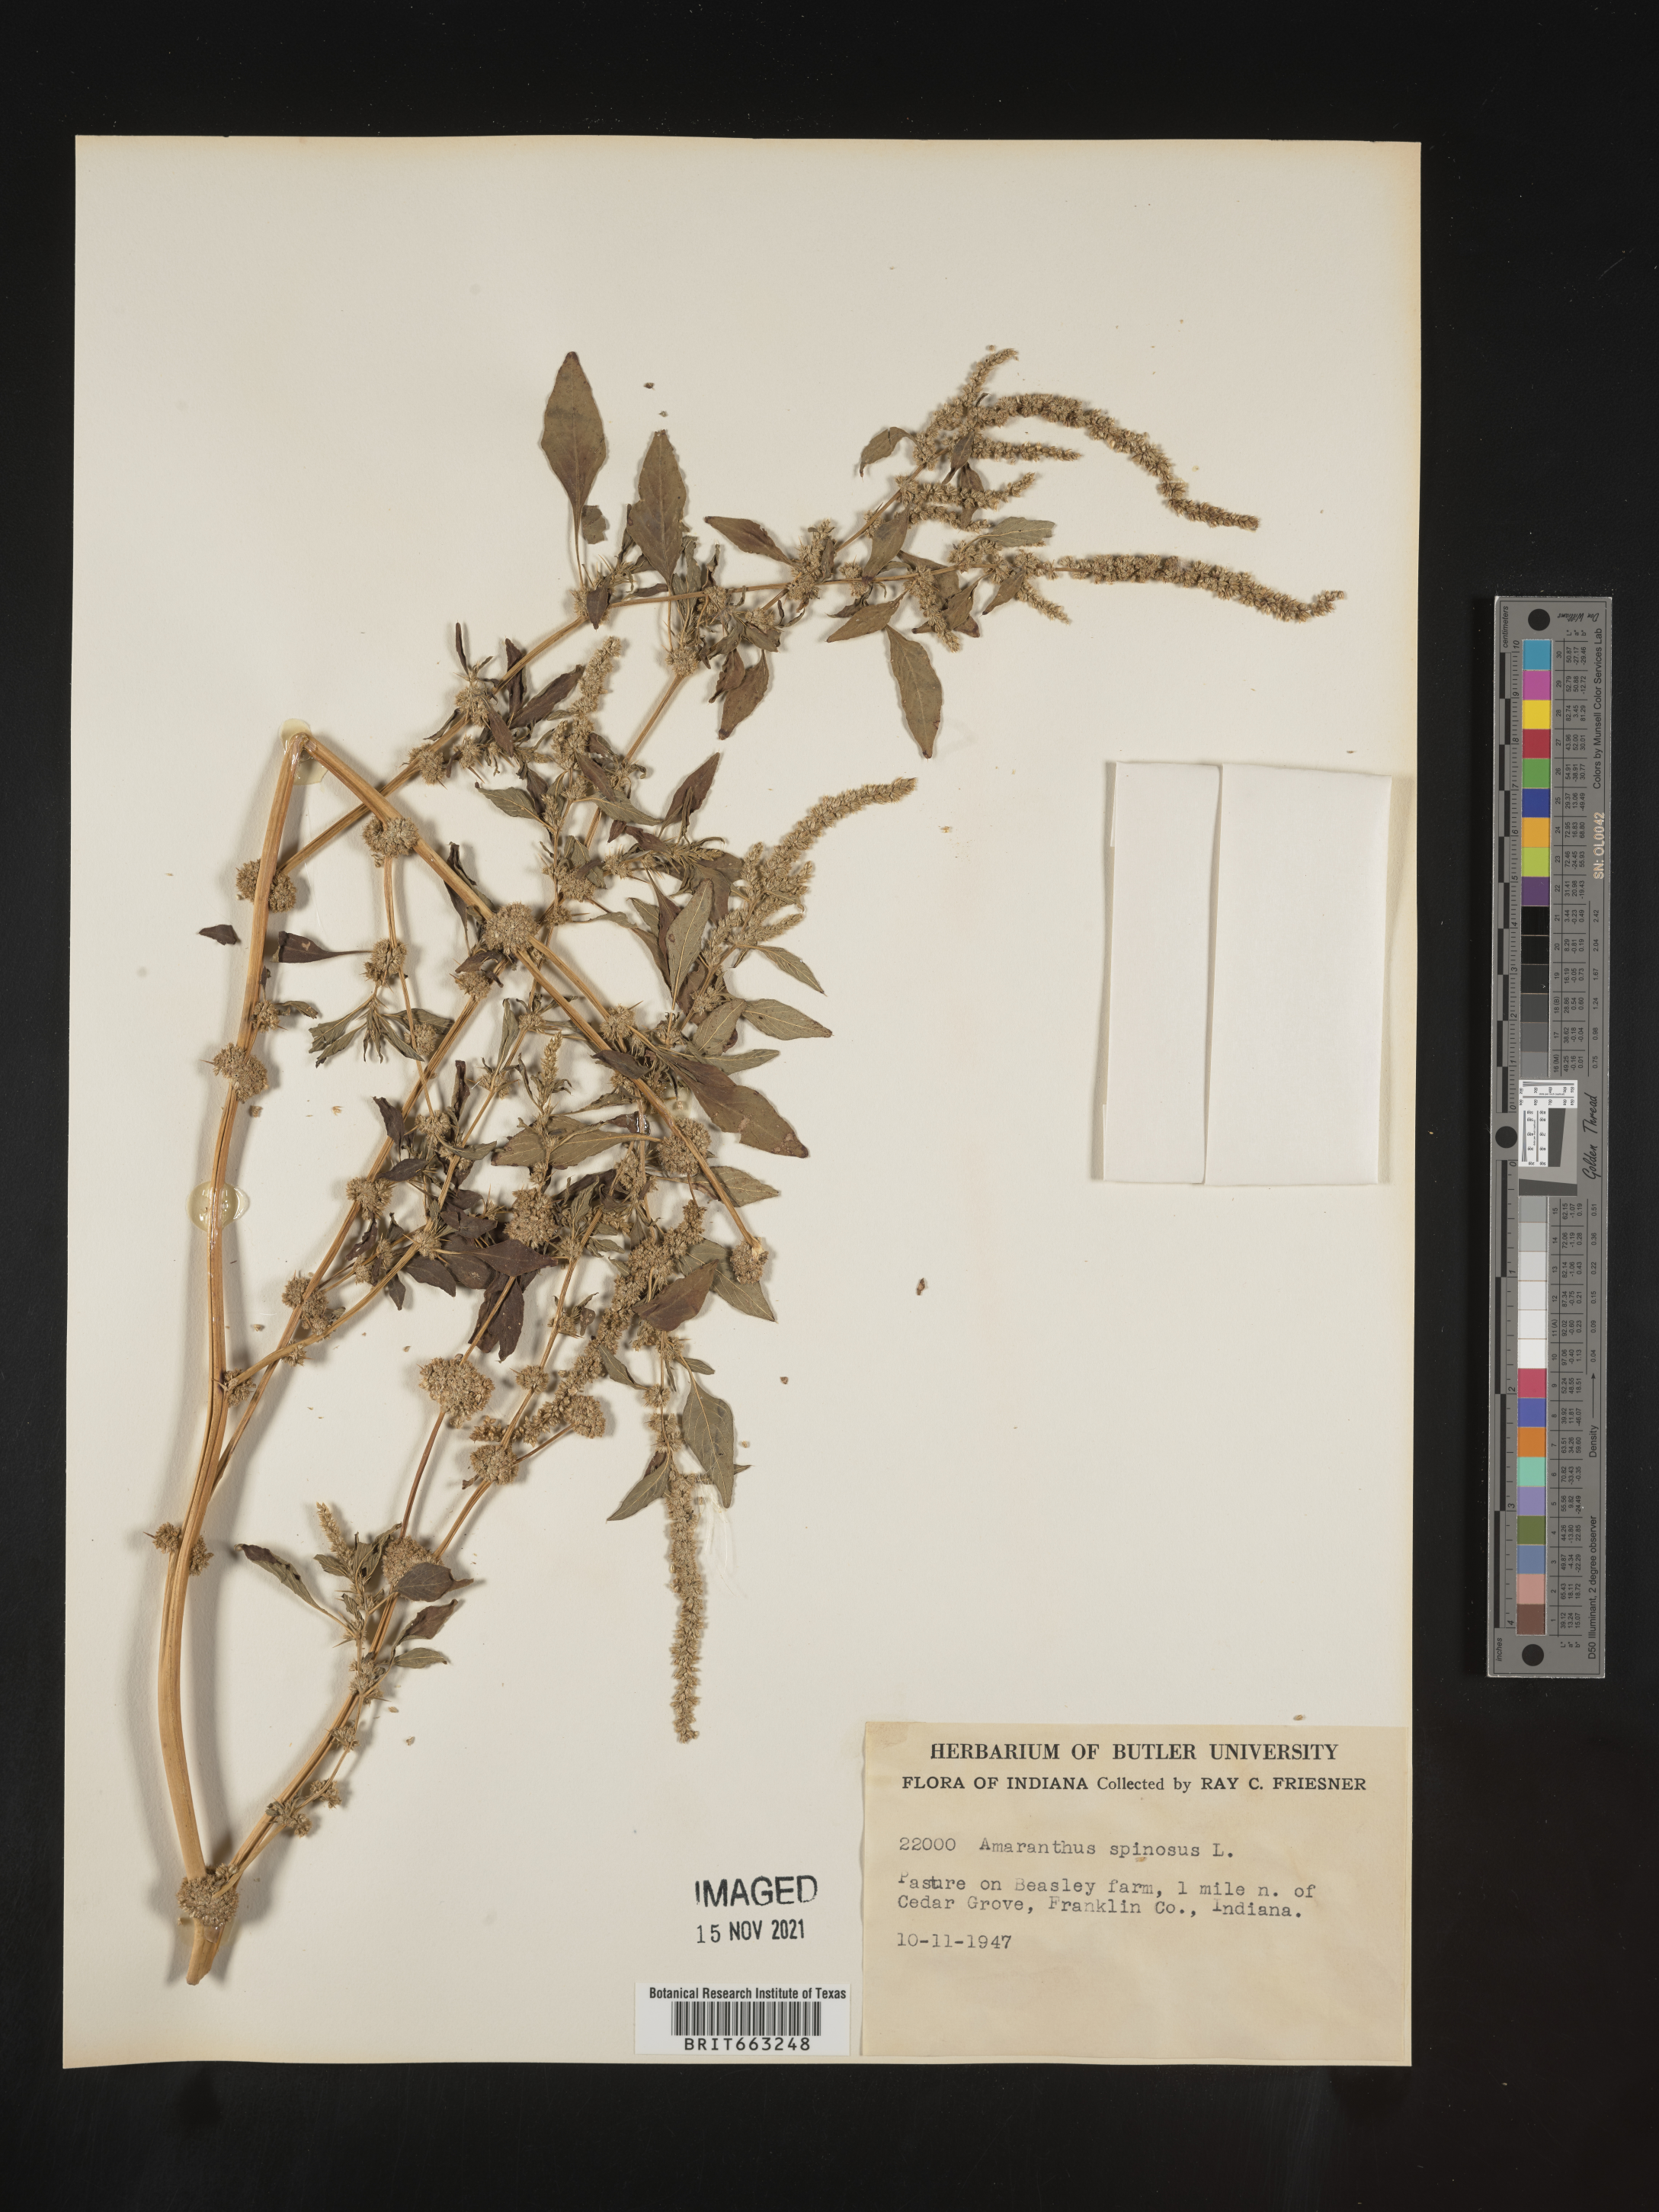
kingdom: Plantae
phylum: Tracheophyta
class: Magnoliopsida
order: Caryophyllales
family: Amaranthaceae
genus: Amaranthus
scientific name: Amaranthus spinosus
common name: Spiny amaranth
